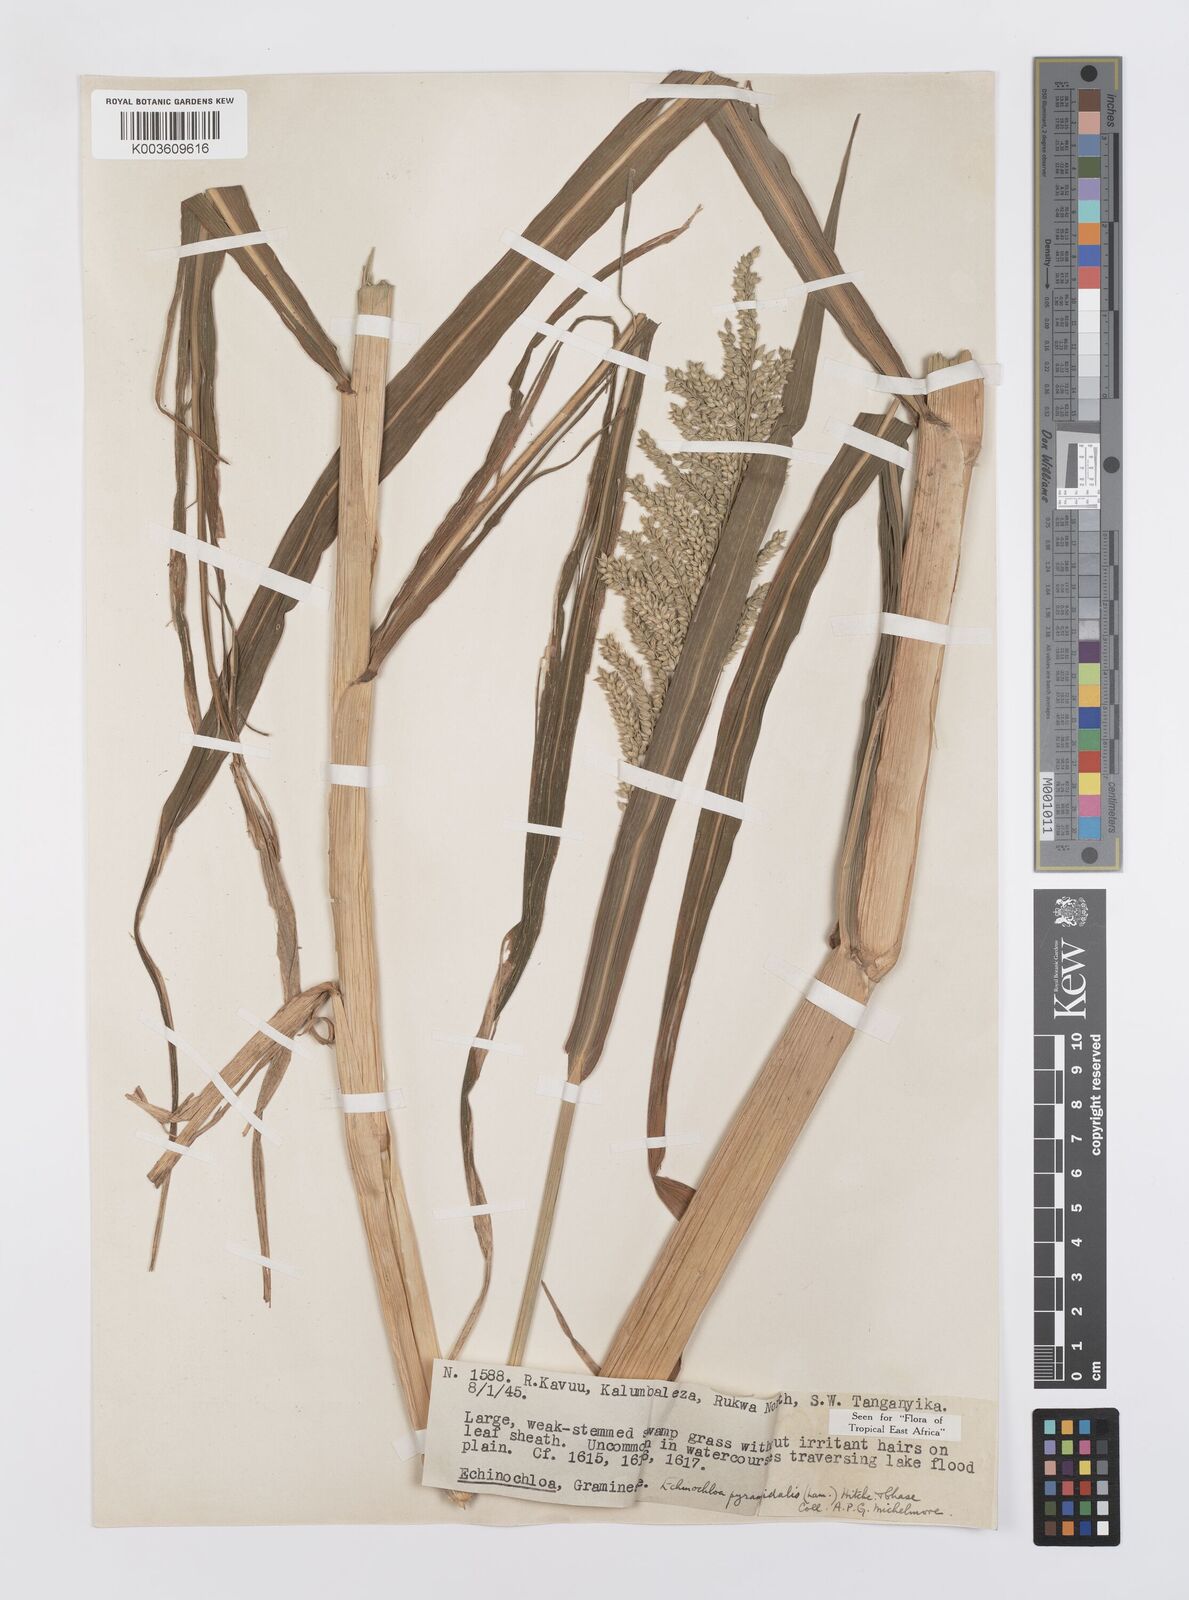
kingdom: Plantae
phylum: Tracheophyta
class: Liliopsida
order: Poales
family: Poaceae
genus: Echinochloa
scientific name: Echinochloa pyramidalis
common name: Antelope grass
